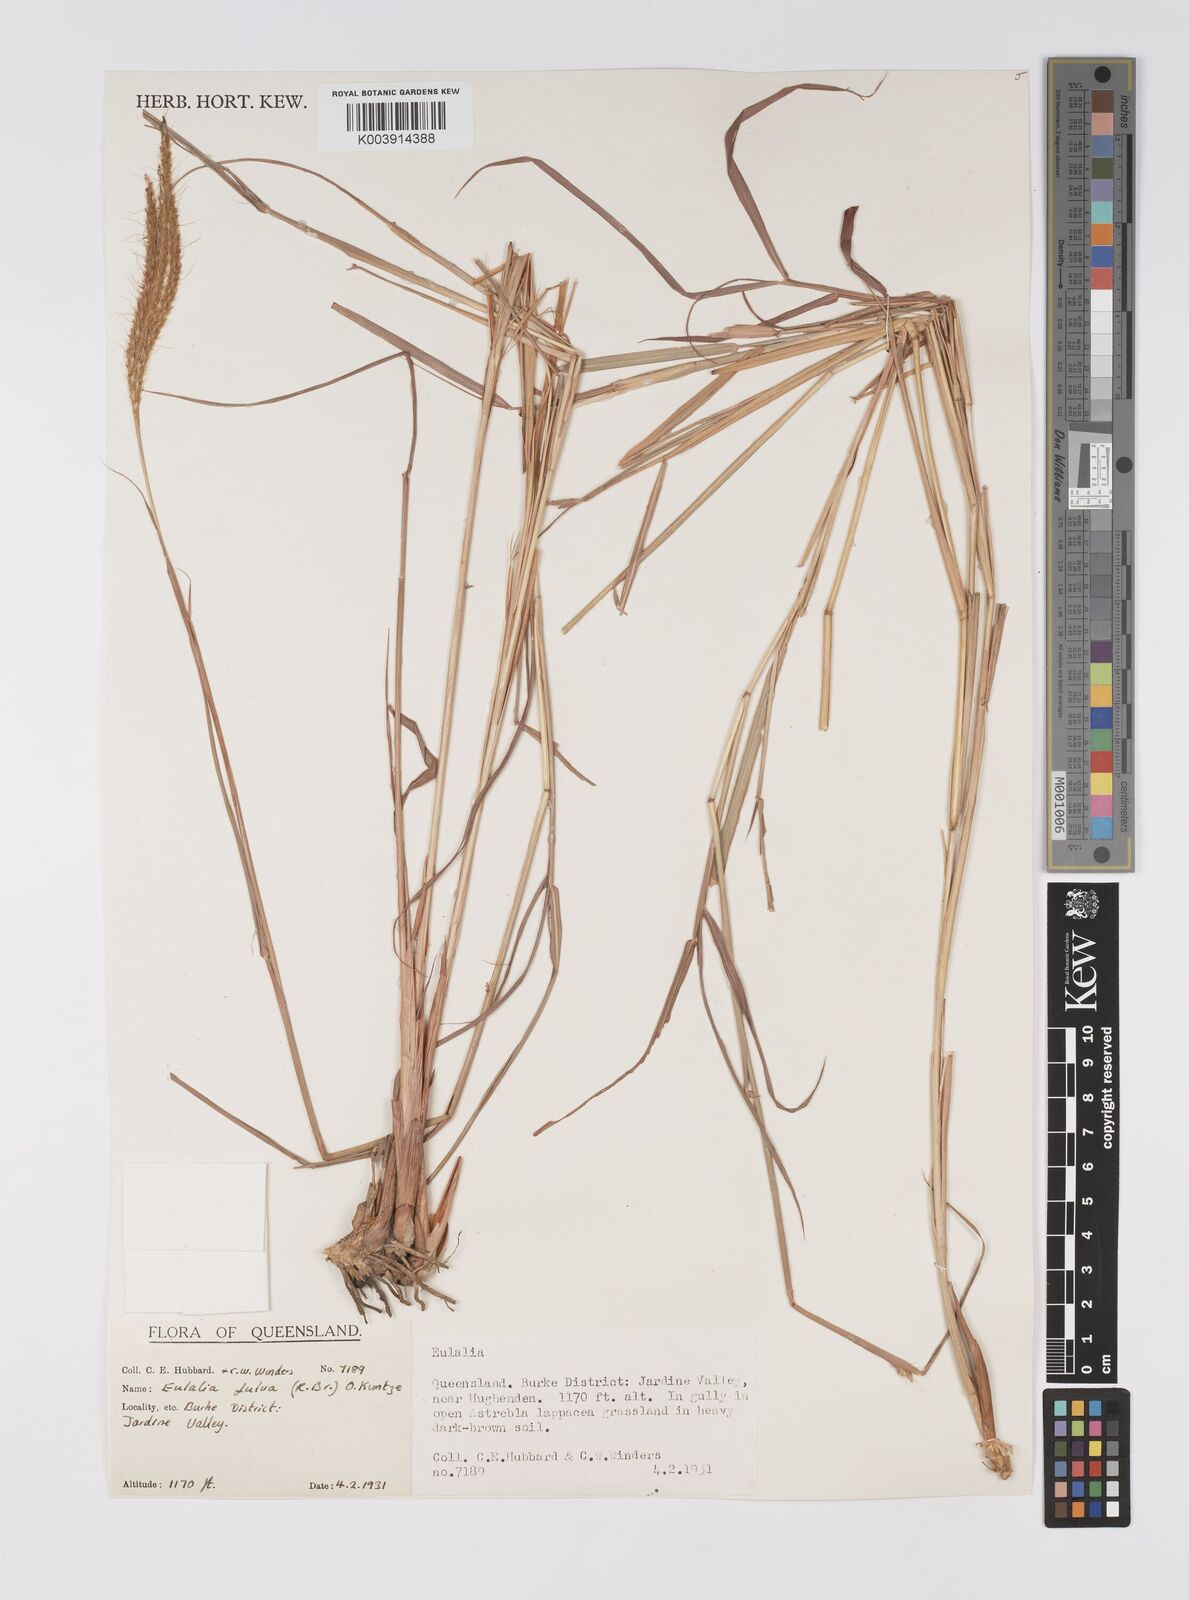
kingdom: Plantae
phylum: Tracheophyta
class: Liliopsida
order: Poales
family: Poaceae
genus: Eulalia
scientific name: Eulalia aurea
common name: Silky browntop
